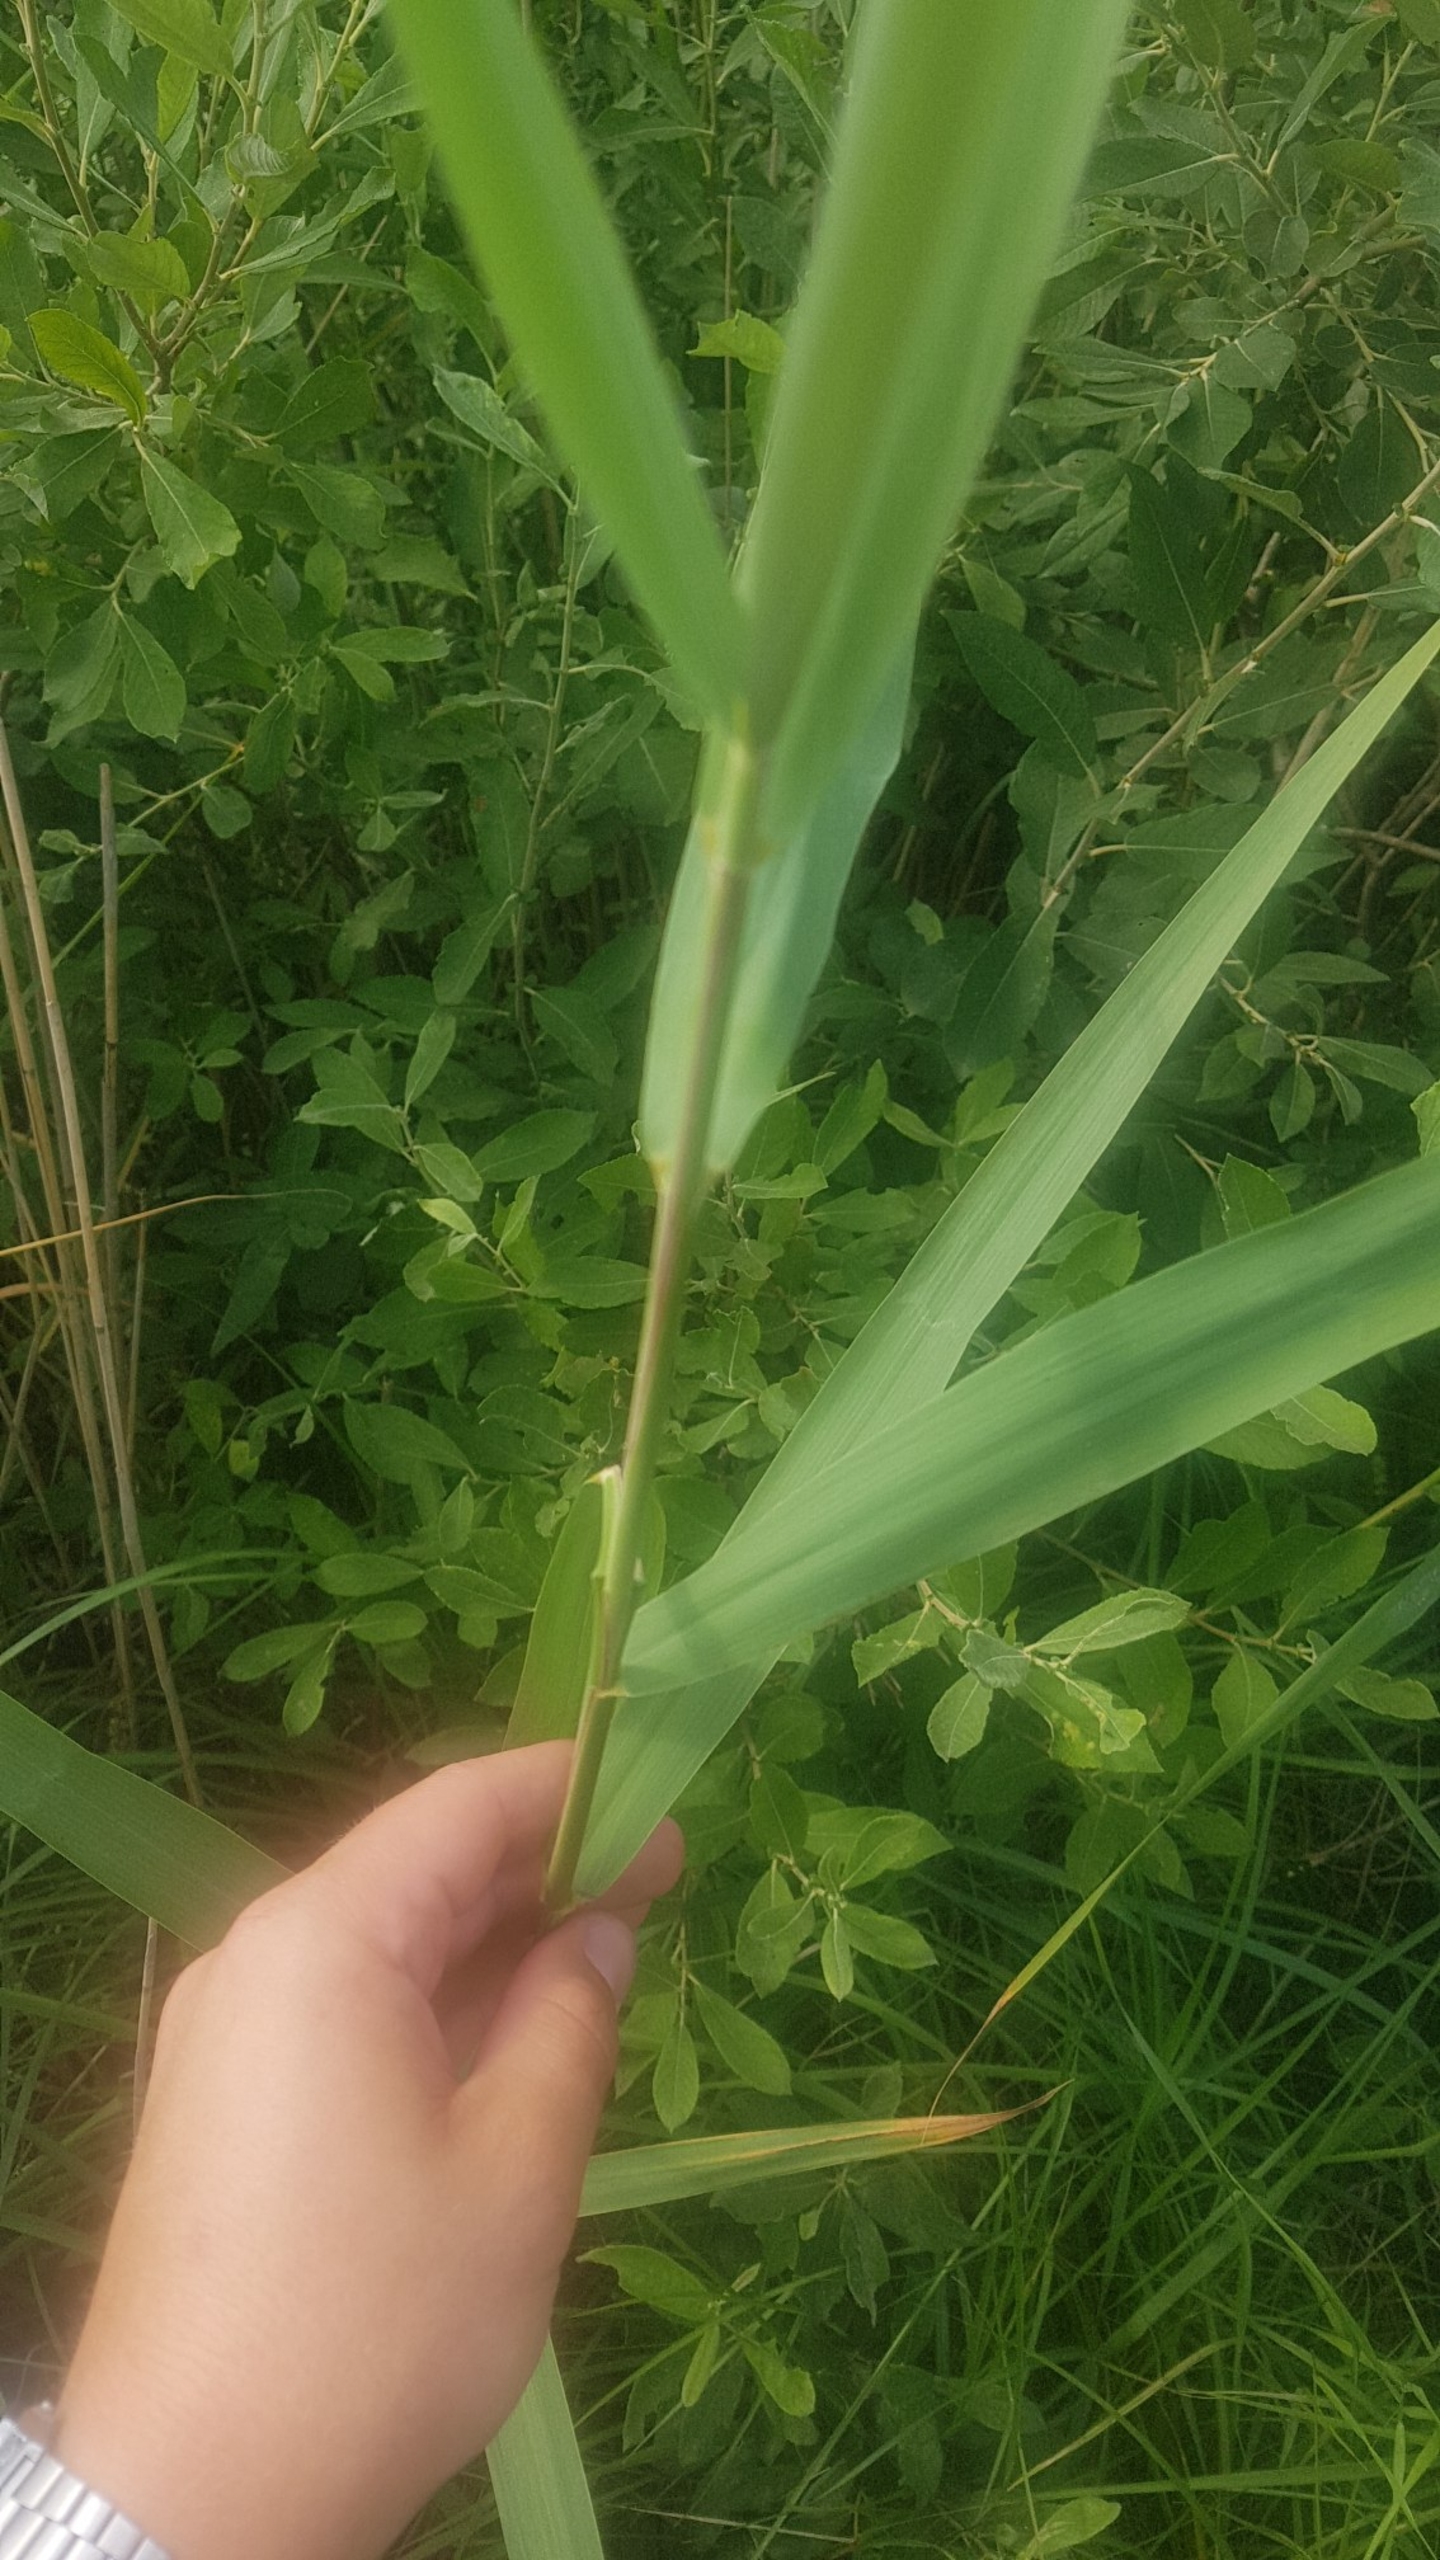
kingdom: Plantae
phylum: Tracheophyta
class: Liliopsida
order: Poales
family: Poaceae
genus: Phragmites
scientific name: Phragmites australis
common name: Tagrør
